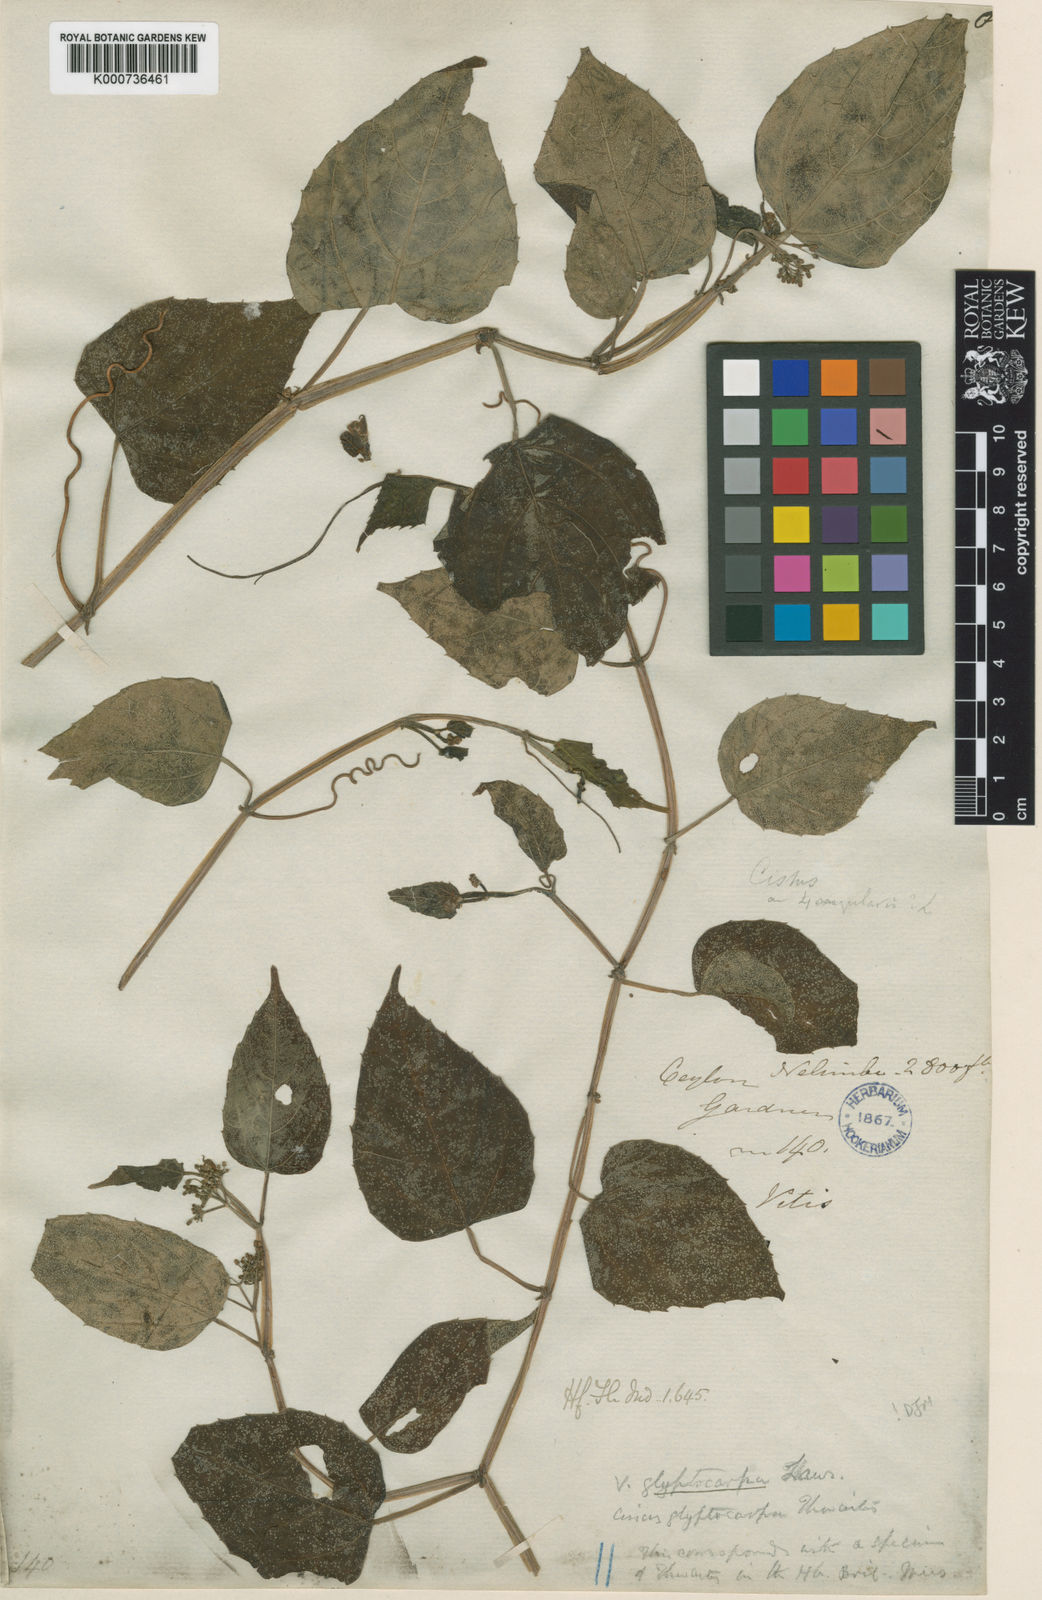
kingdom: Plantae
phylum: Tracheophyta
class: Magnoliopsida
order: Vitales
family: Vitaceae
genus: Cissus
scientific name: Cissus glyptocarpa
